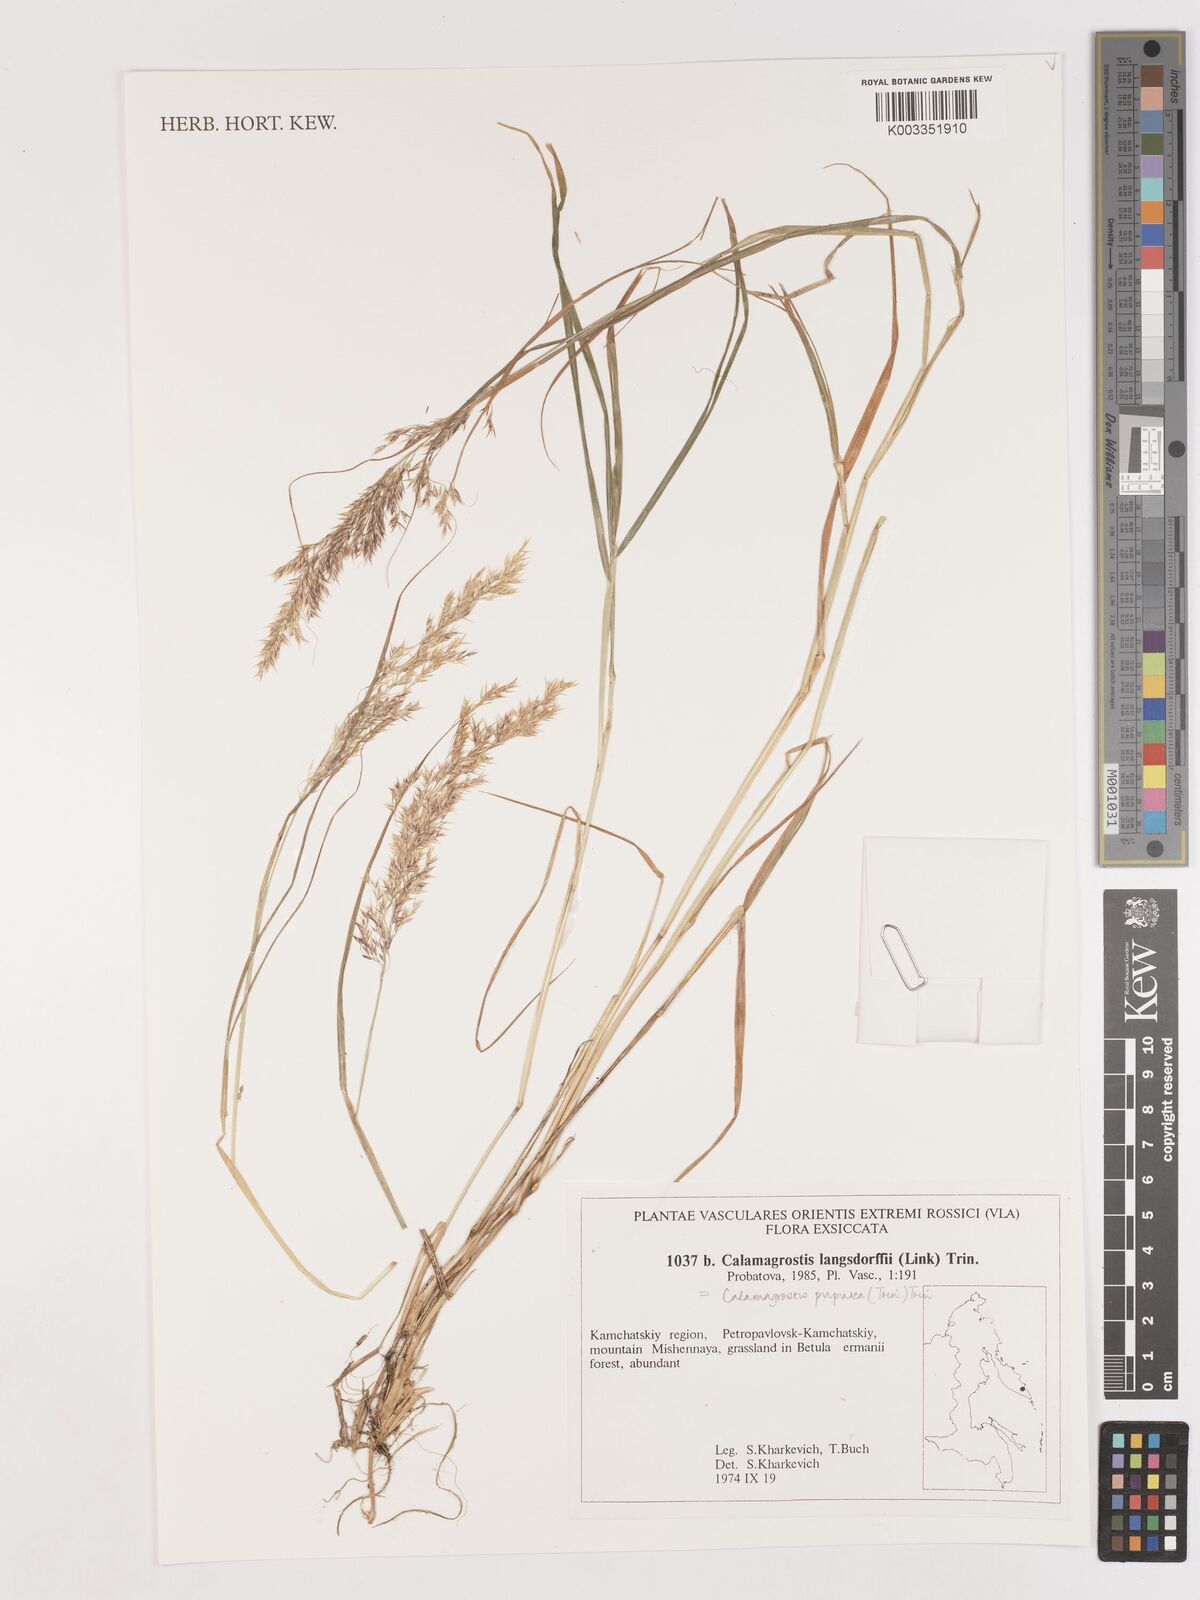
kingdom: Plantae
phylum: Tracheophyta
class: Liliopsida
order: Poales
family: Poaceae
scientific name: Poaceae
